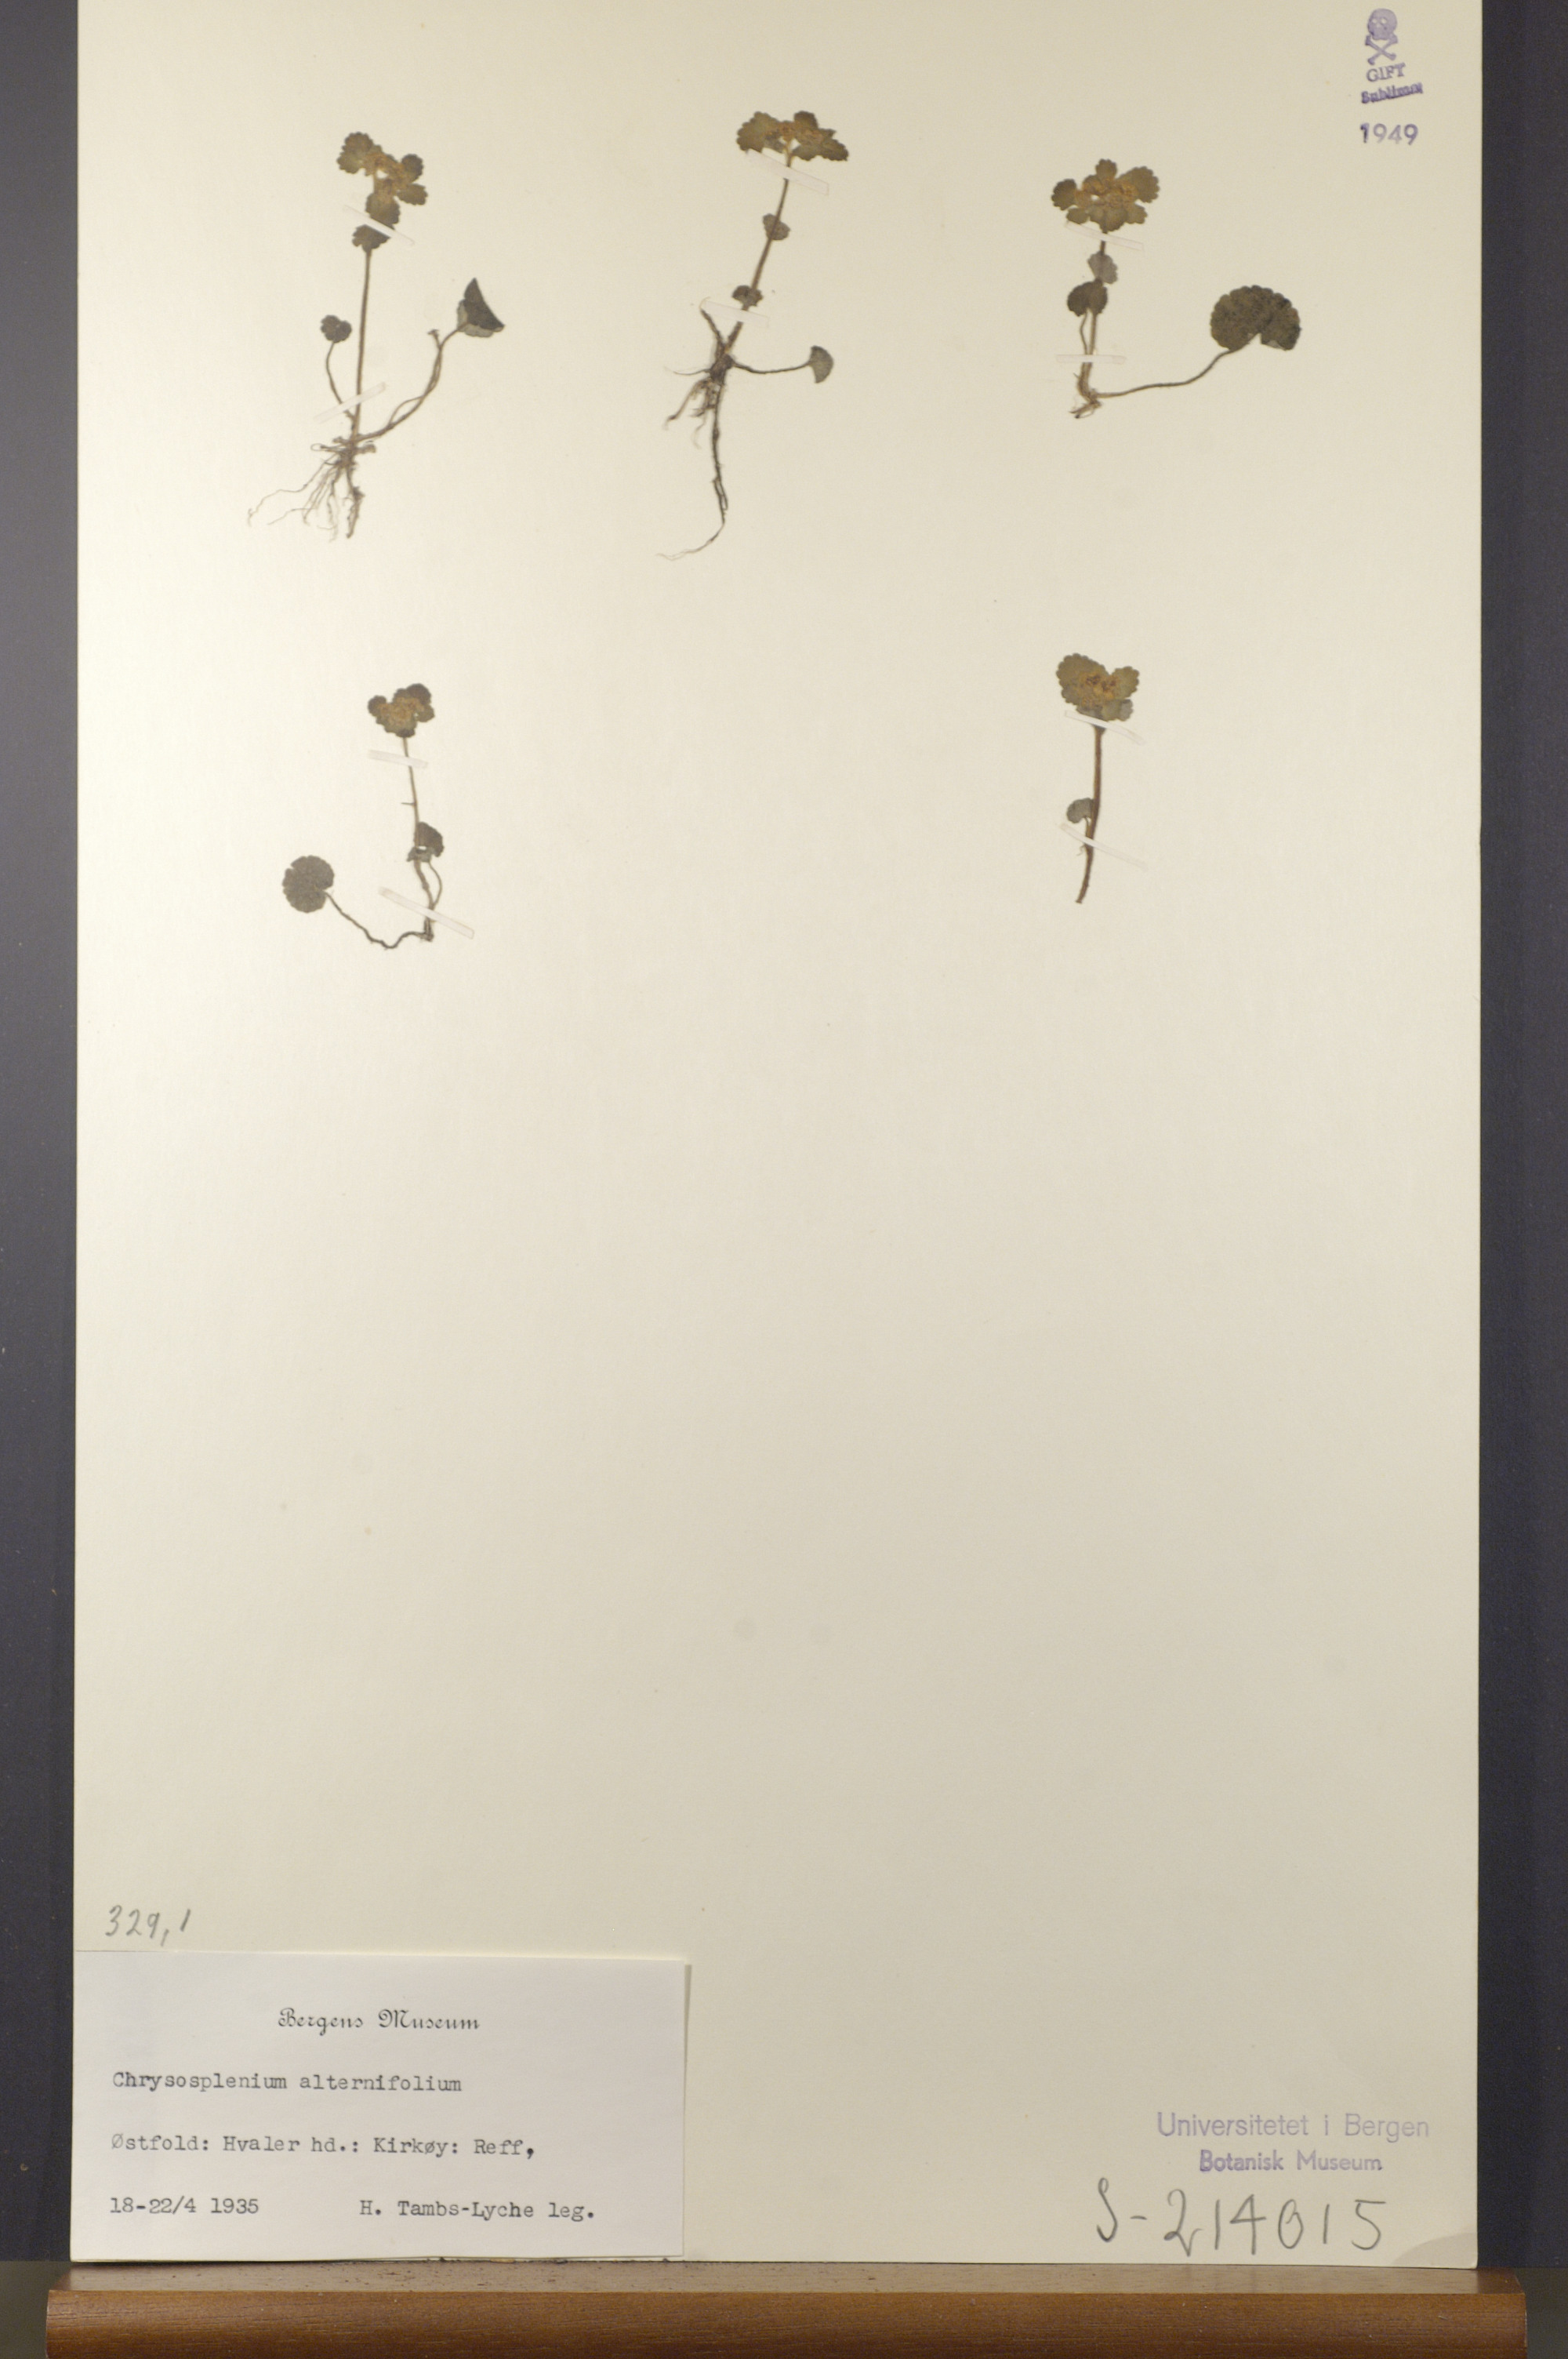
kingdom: Plantae
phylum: Tracheophyta
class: Magnoliopsida
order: Saxifragales
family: Saxifragaceae
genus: Chrysosplenium
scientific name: Chrysosplenium alternifolium
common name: Alternate-leaved golden-saxifrage
